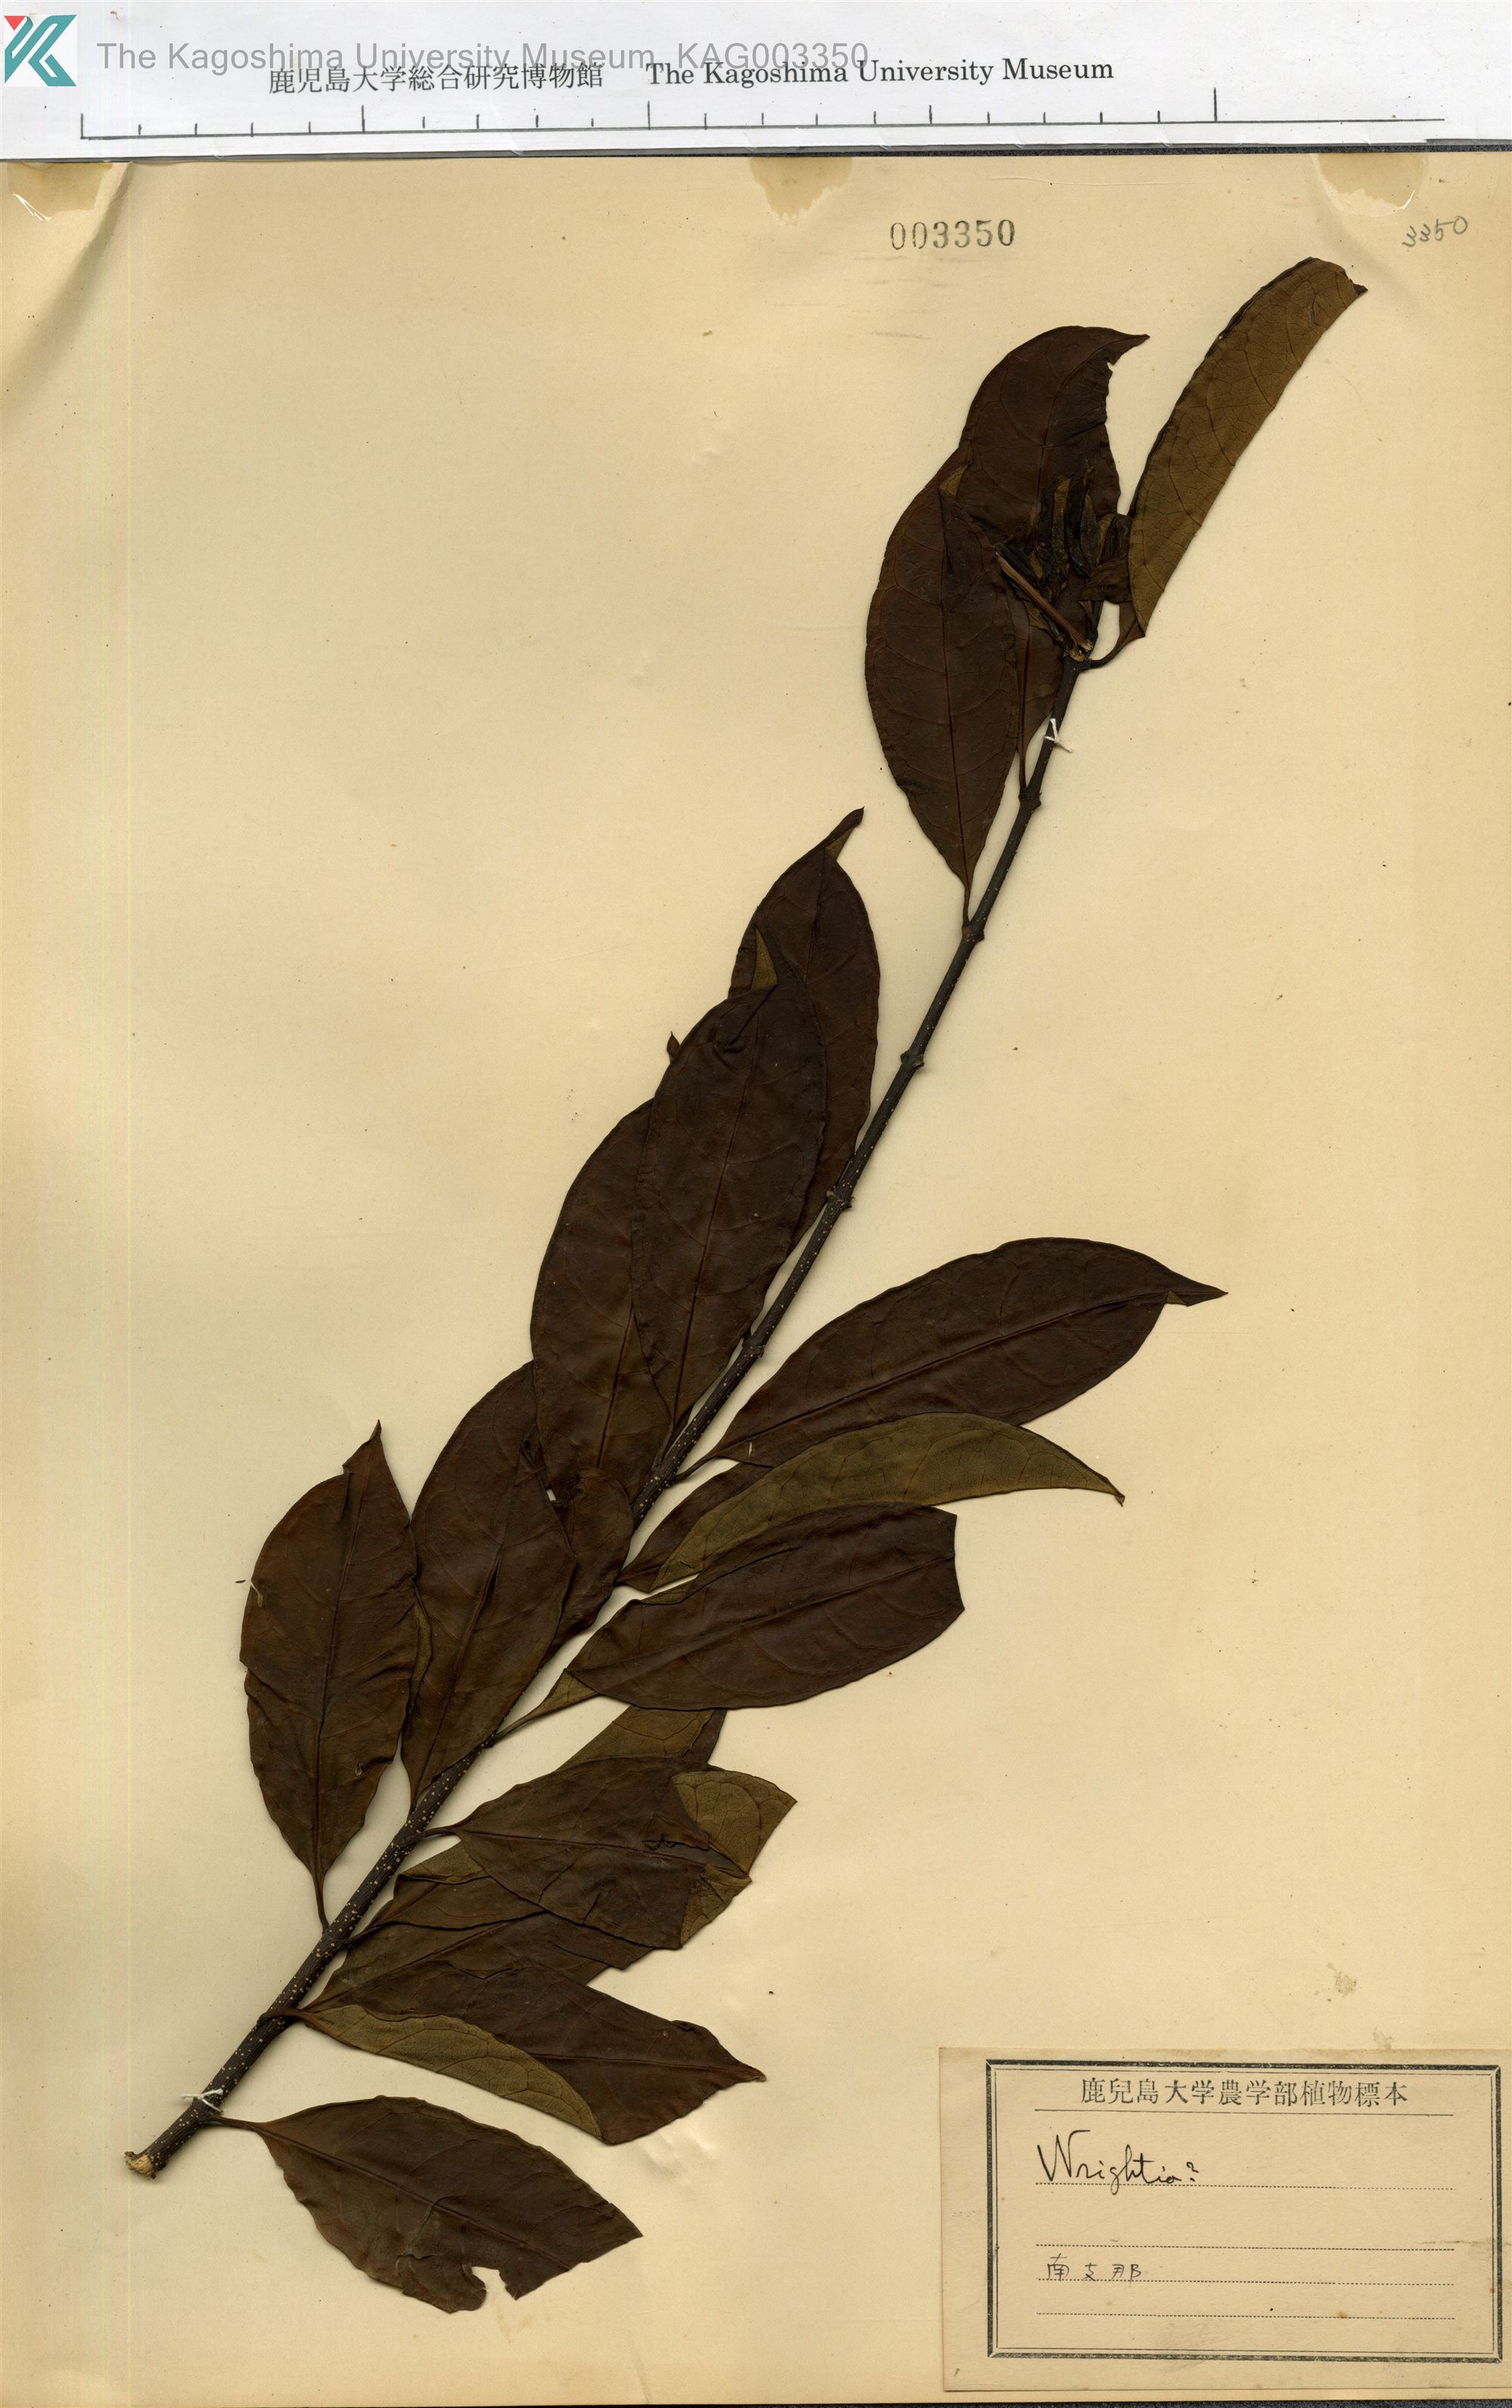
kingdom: Plantae
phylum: Tracheophyta
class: Magnoliopsida
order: Gentianales
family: Apocynaceae
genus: Wrightia
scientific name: Wrightia
